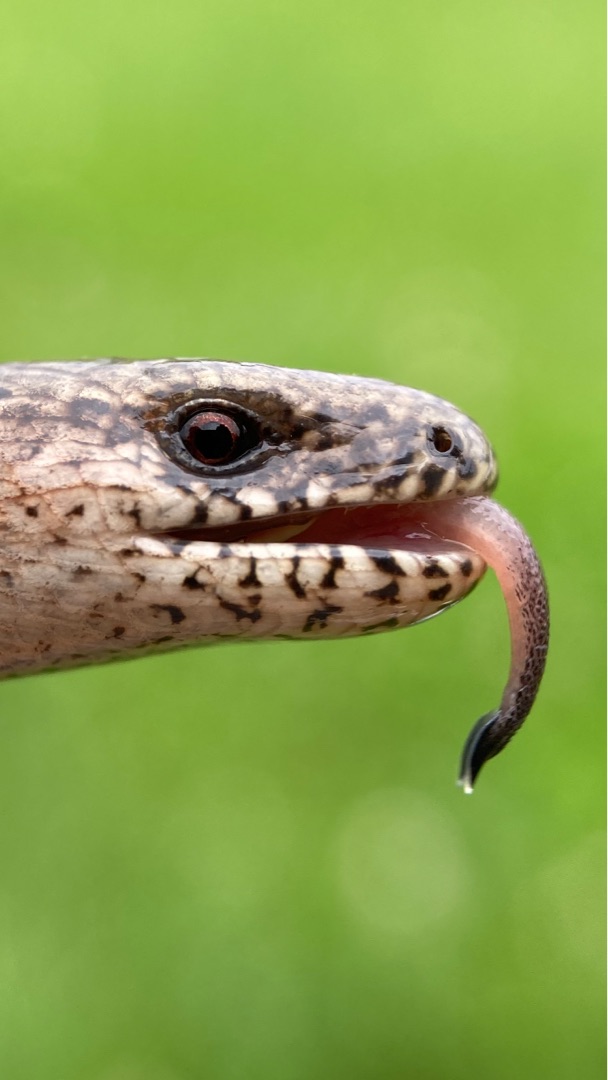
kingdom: Animalia
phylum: Chordata
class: Squamata
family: Anguidae
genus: Anguis
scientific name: Anguis fragilis
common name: Stålorm
